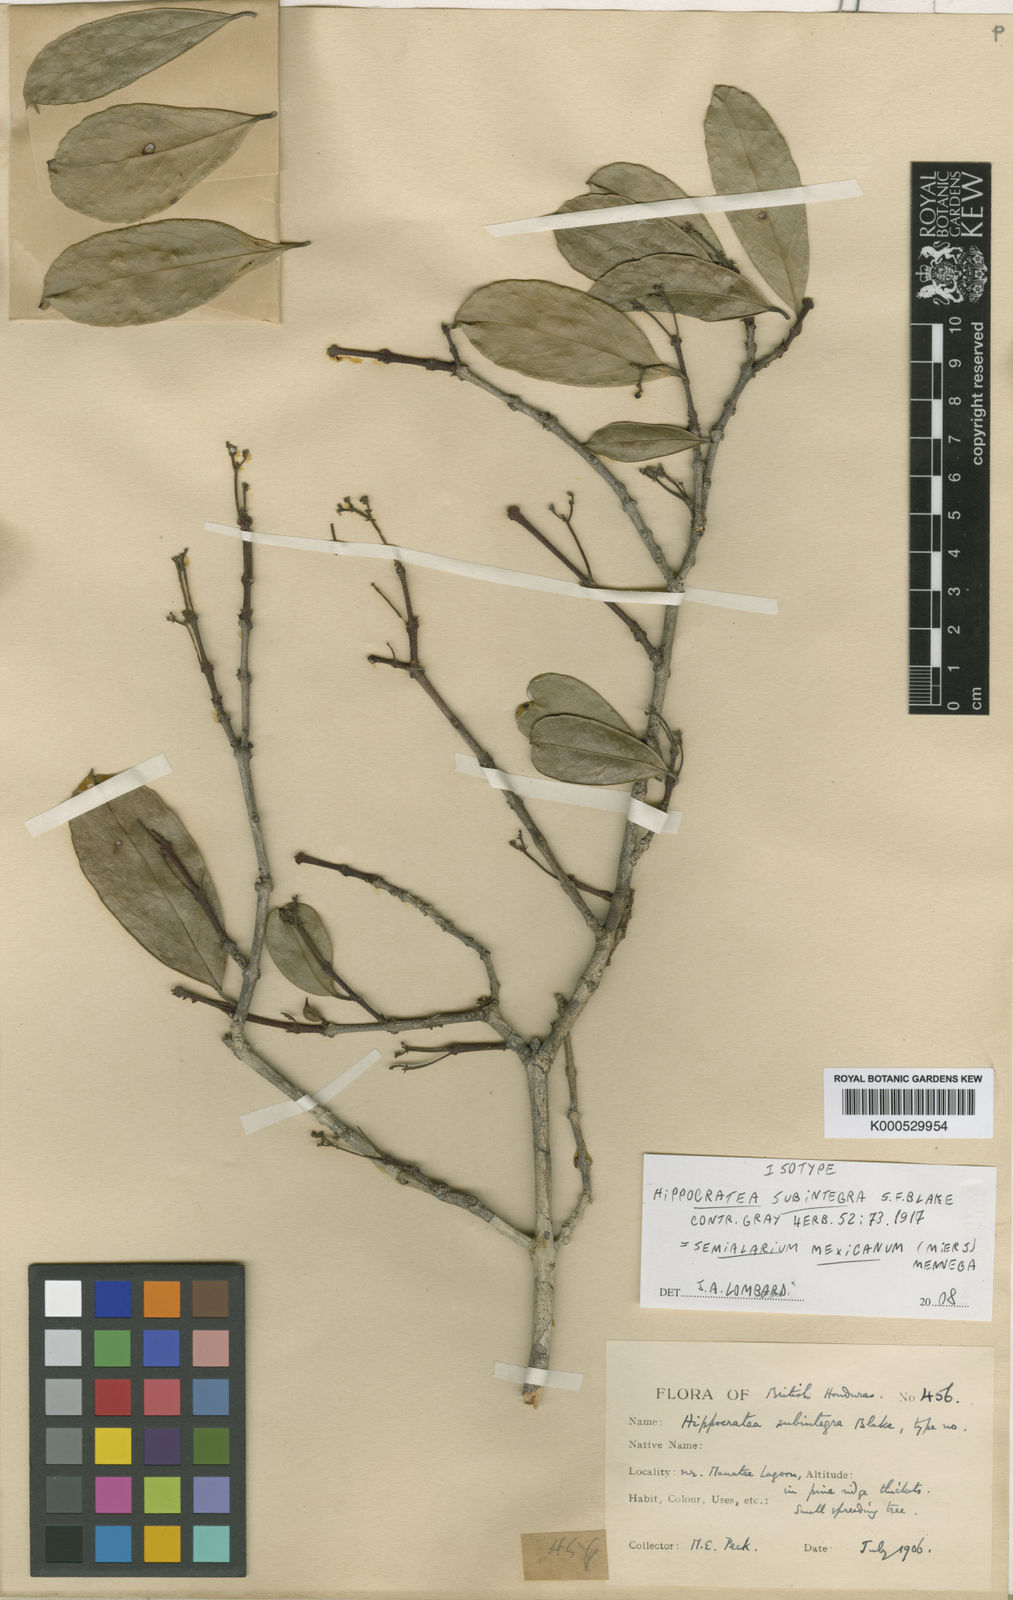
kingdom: Plantae
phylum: Tracheophyta
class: Magnoliopsida
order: Celastrales
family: Celastraceae
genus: Semialarium
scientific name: Semialarium mexicanum
